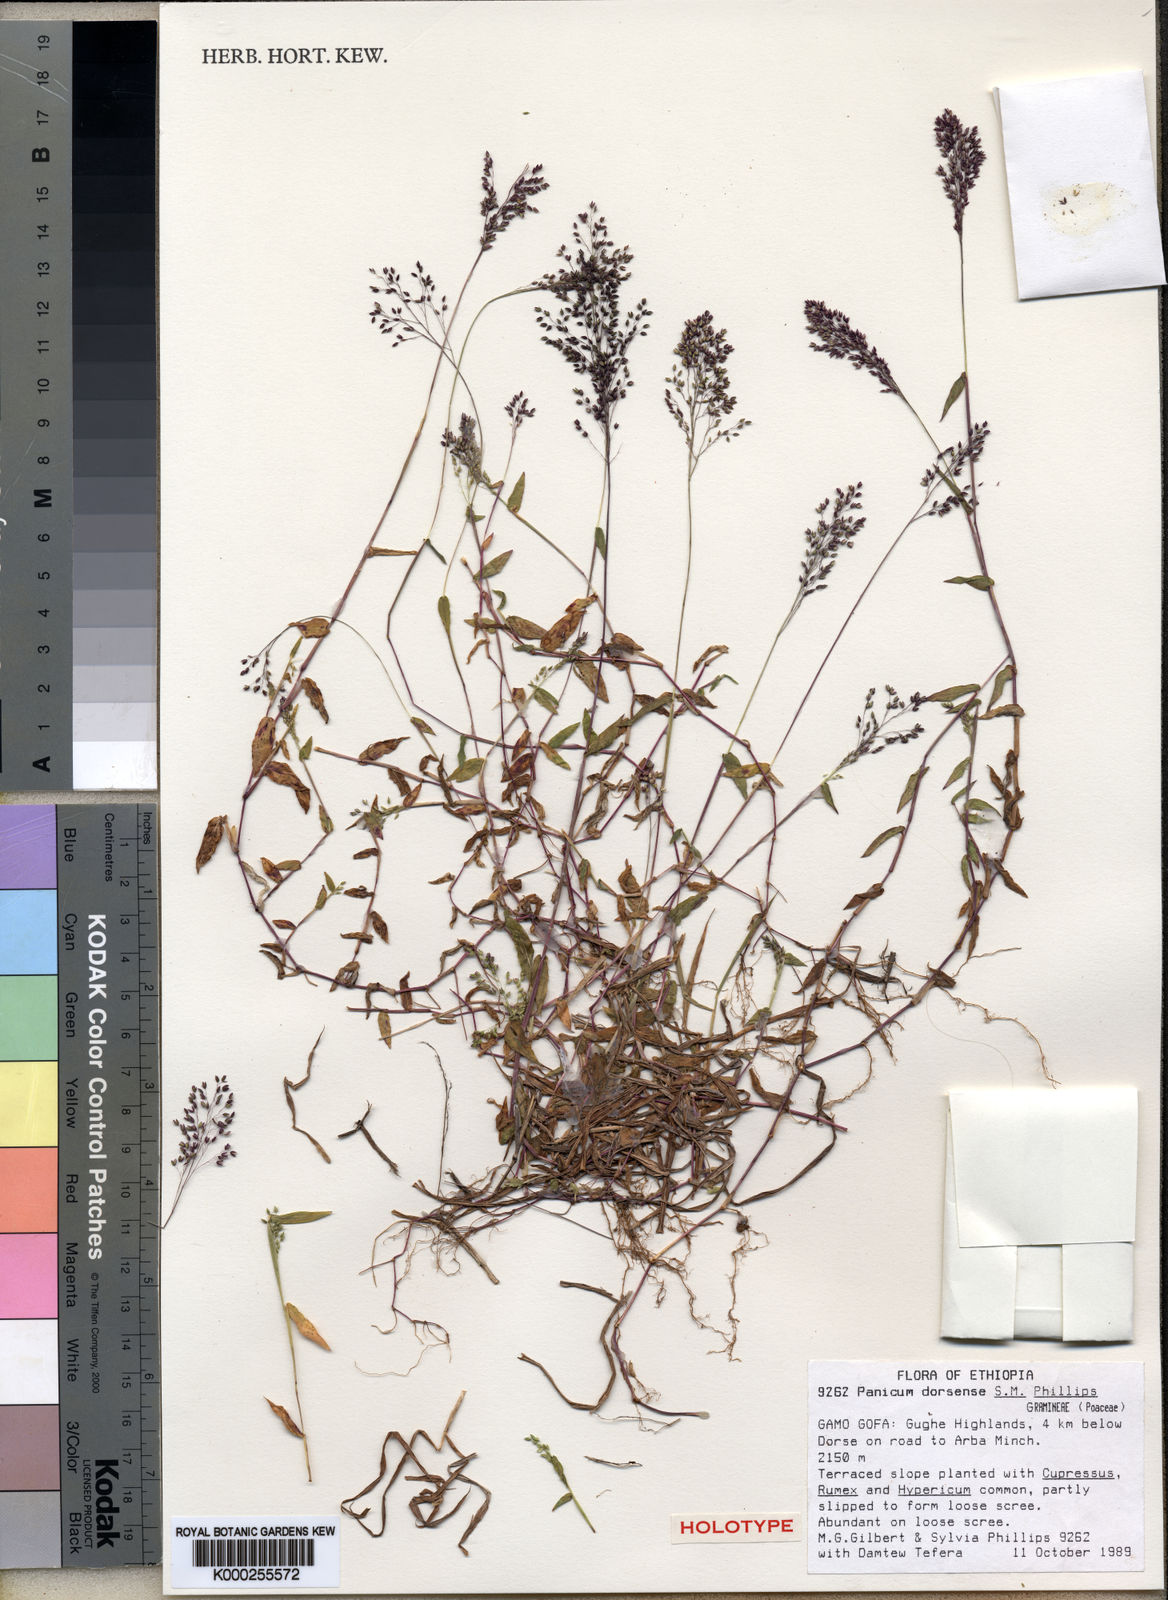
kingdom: Plantae
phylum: Tracheophyta
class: Liliopsida
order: Poales
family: Poaceae
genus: Panicum
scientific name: Panicum dorsense
